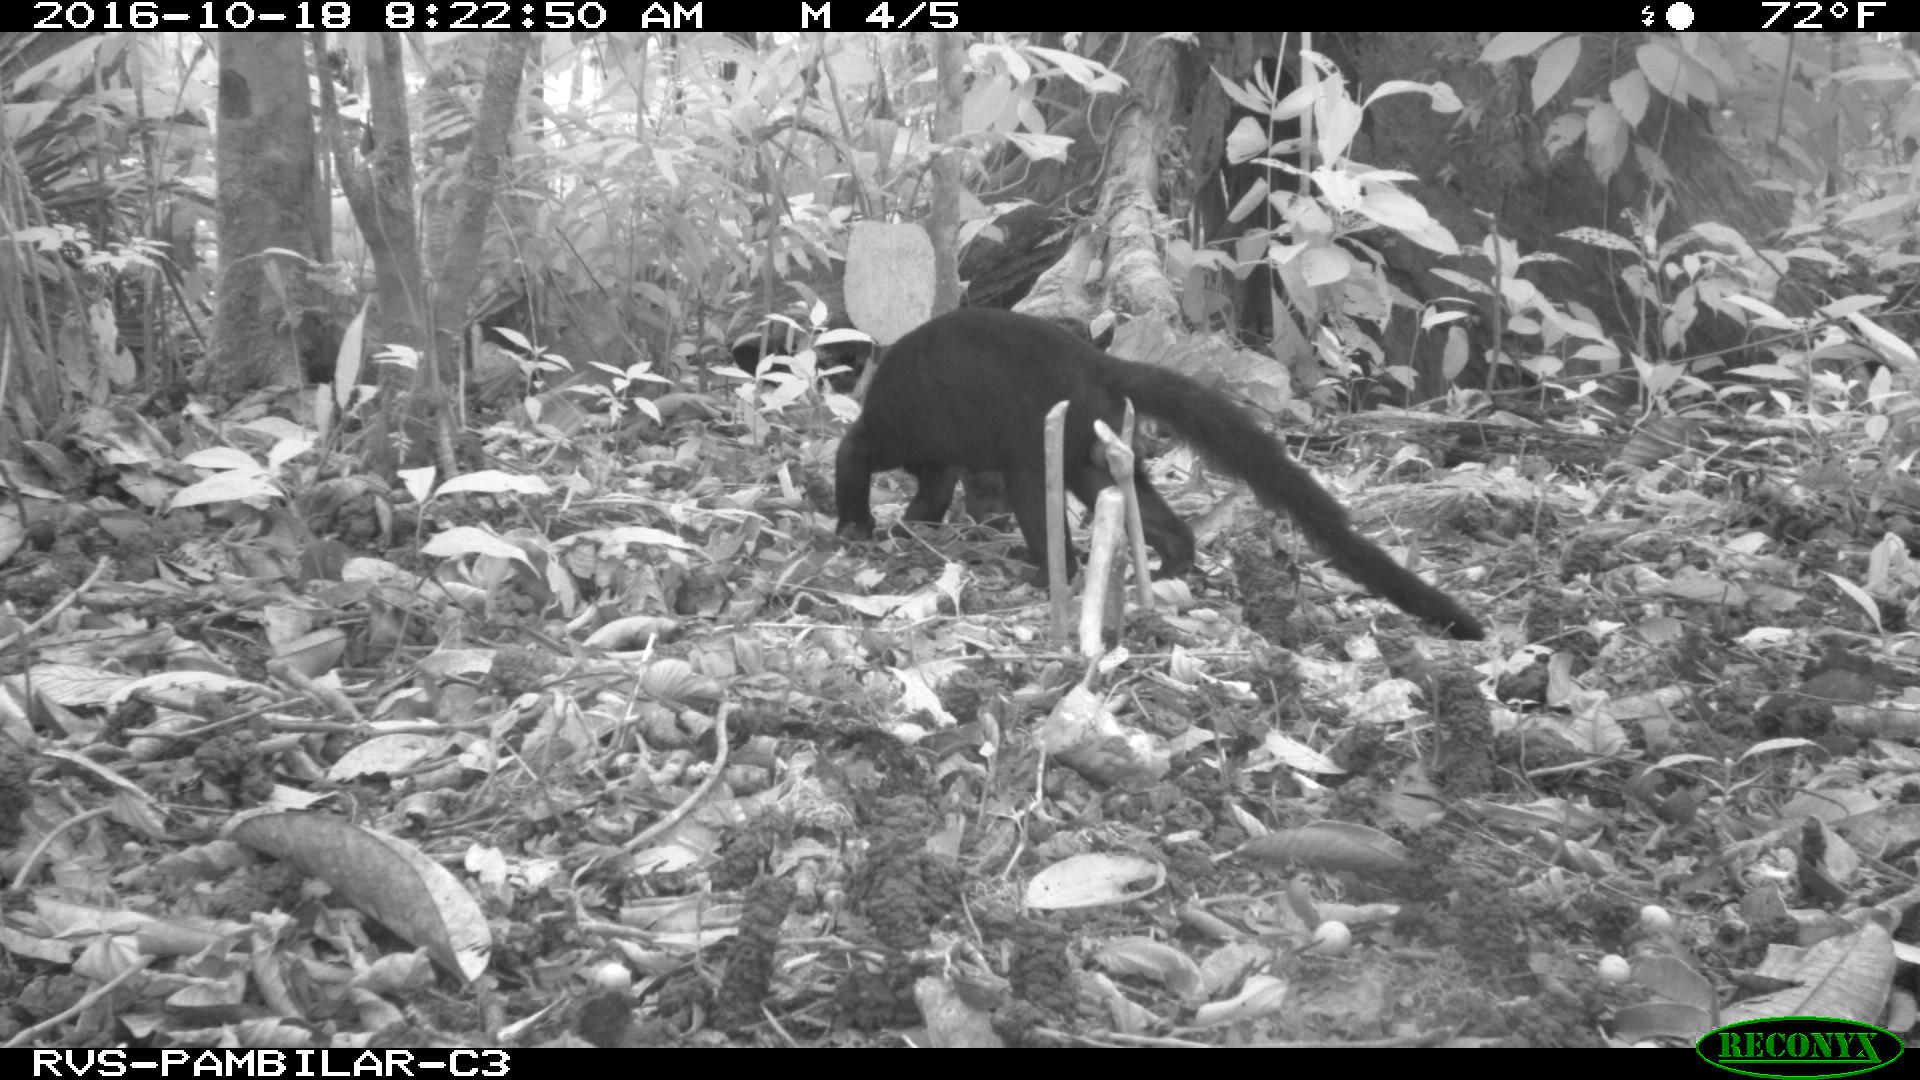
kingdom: Animalia
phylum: Chordata
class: Mammalia
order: Carnivora
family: Mustelidae
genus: Eira
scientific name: Eira barbara
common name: Tayra
